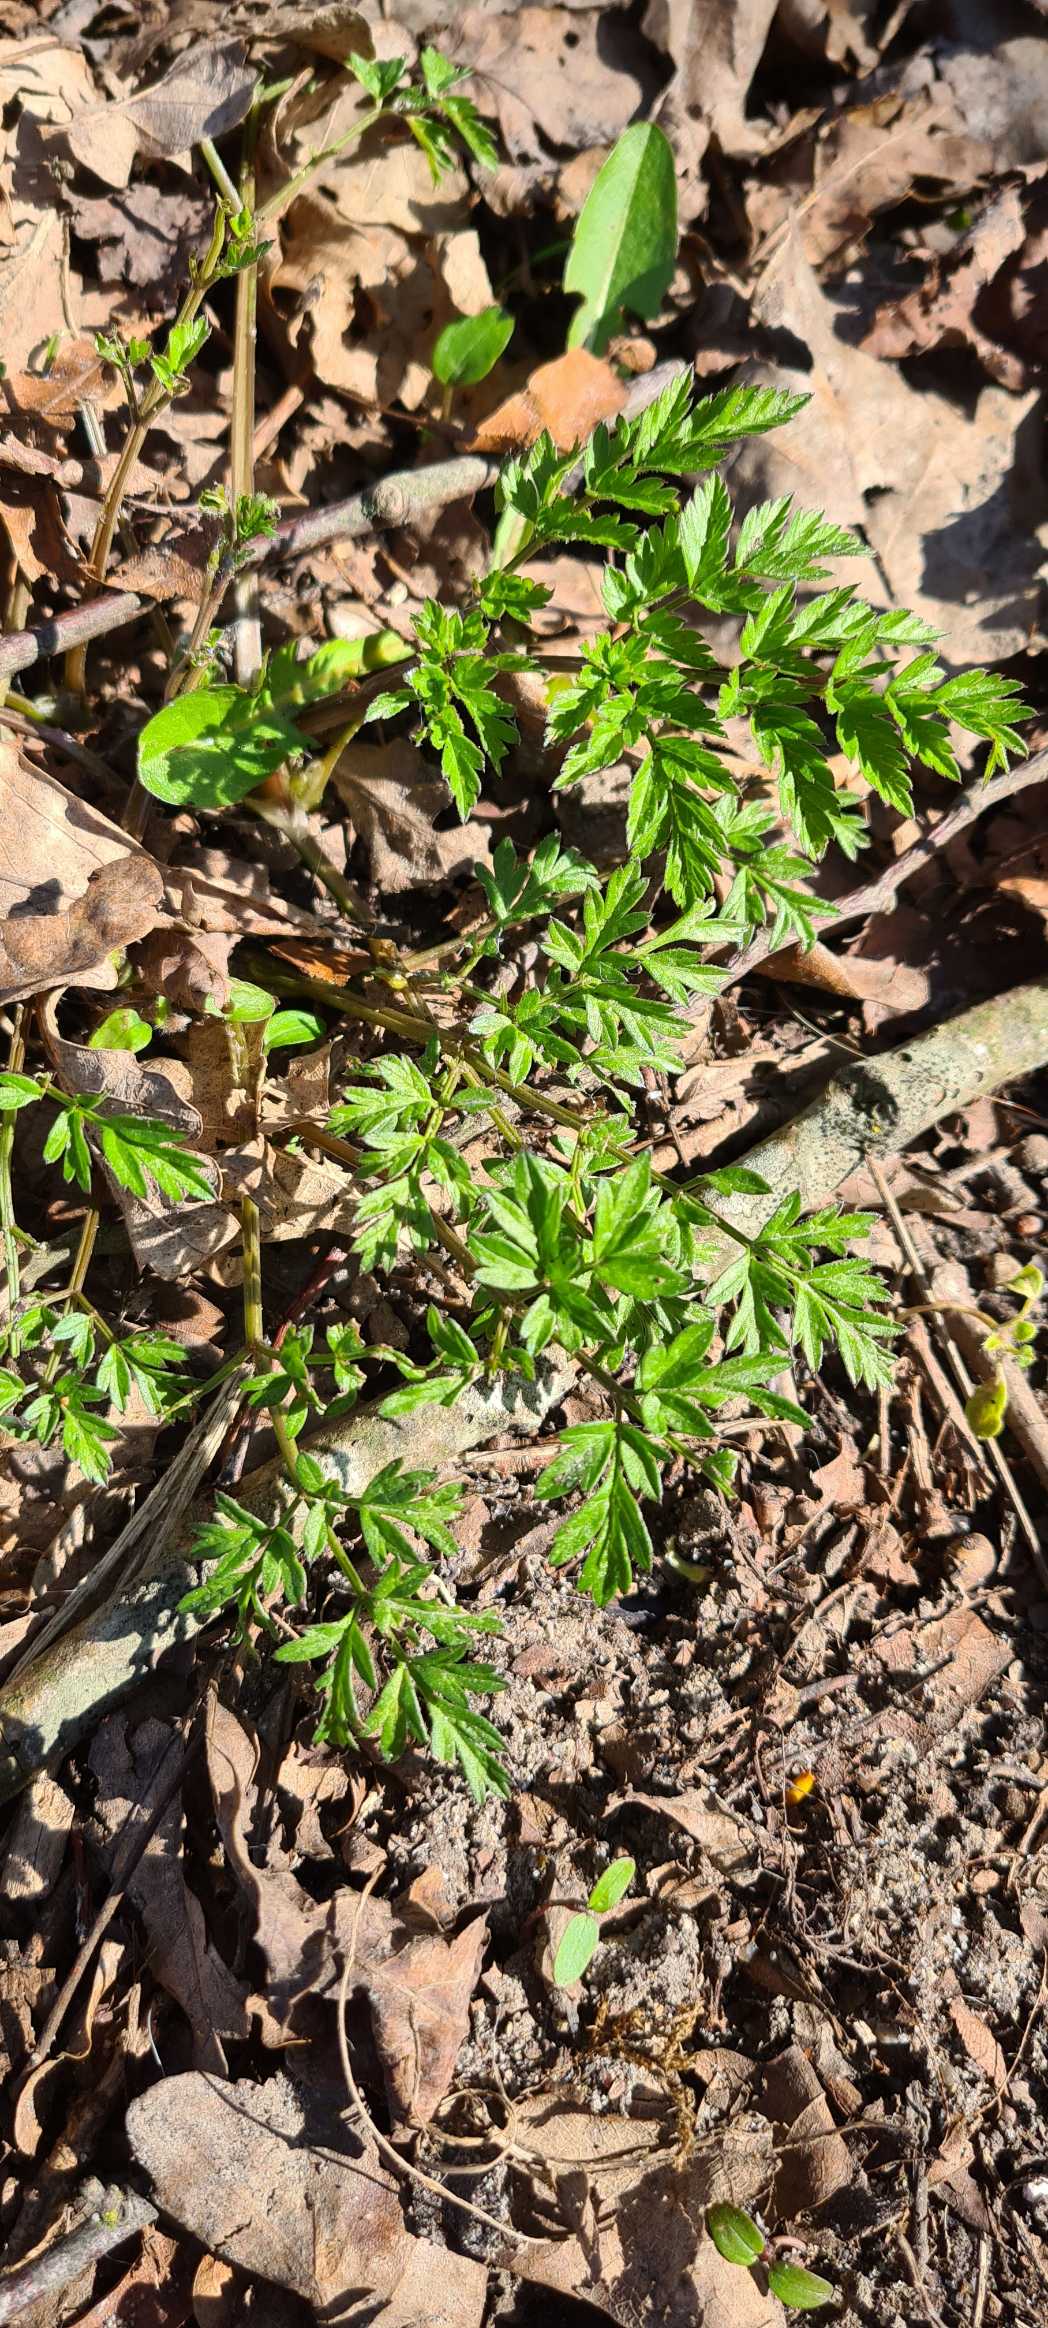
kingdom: Plantae
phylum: Tracheophyta
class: Magnoliopsida
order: Apiales
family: Apiaceae
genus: Anthriscus
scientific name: Anthriscus sylvestris
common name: Vild kørvel
